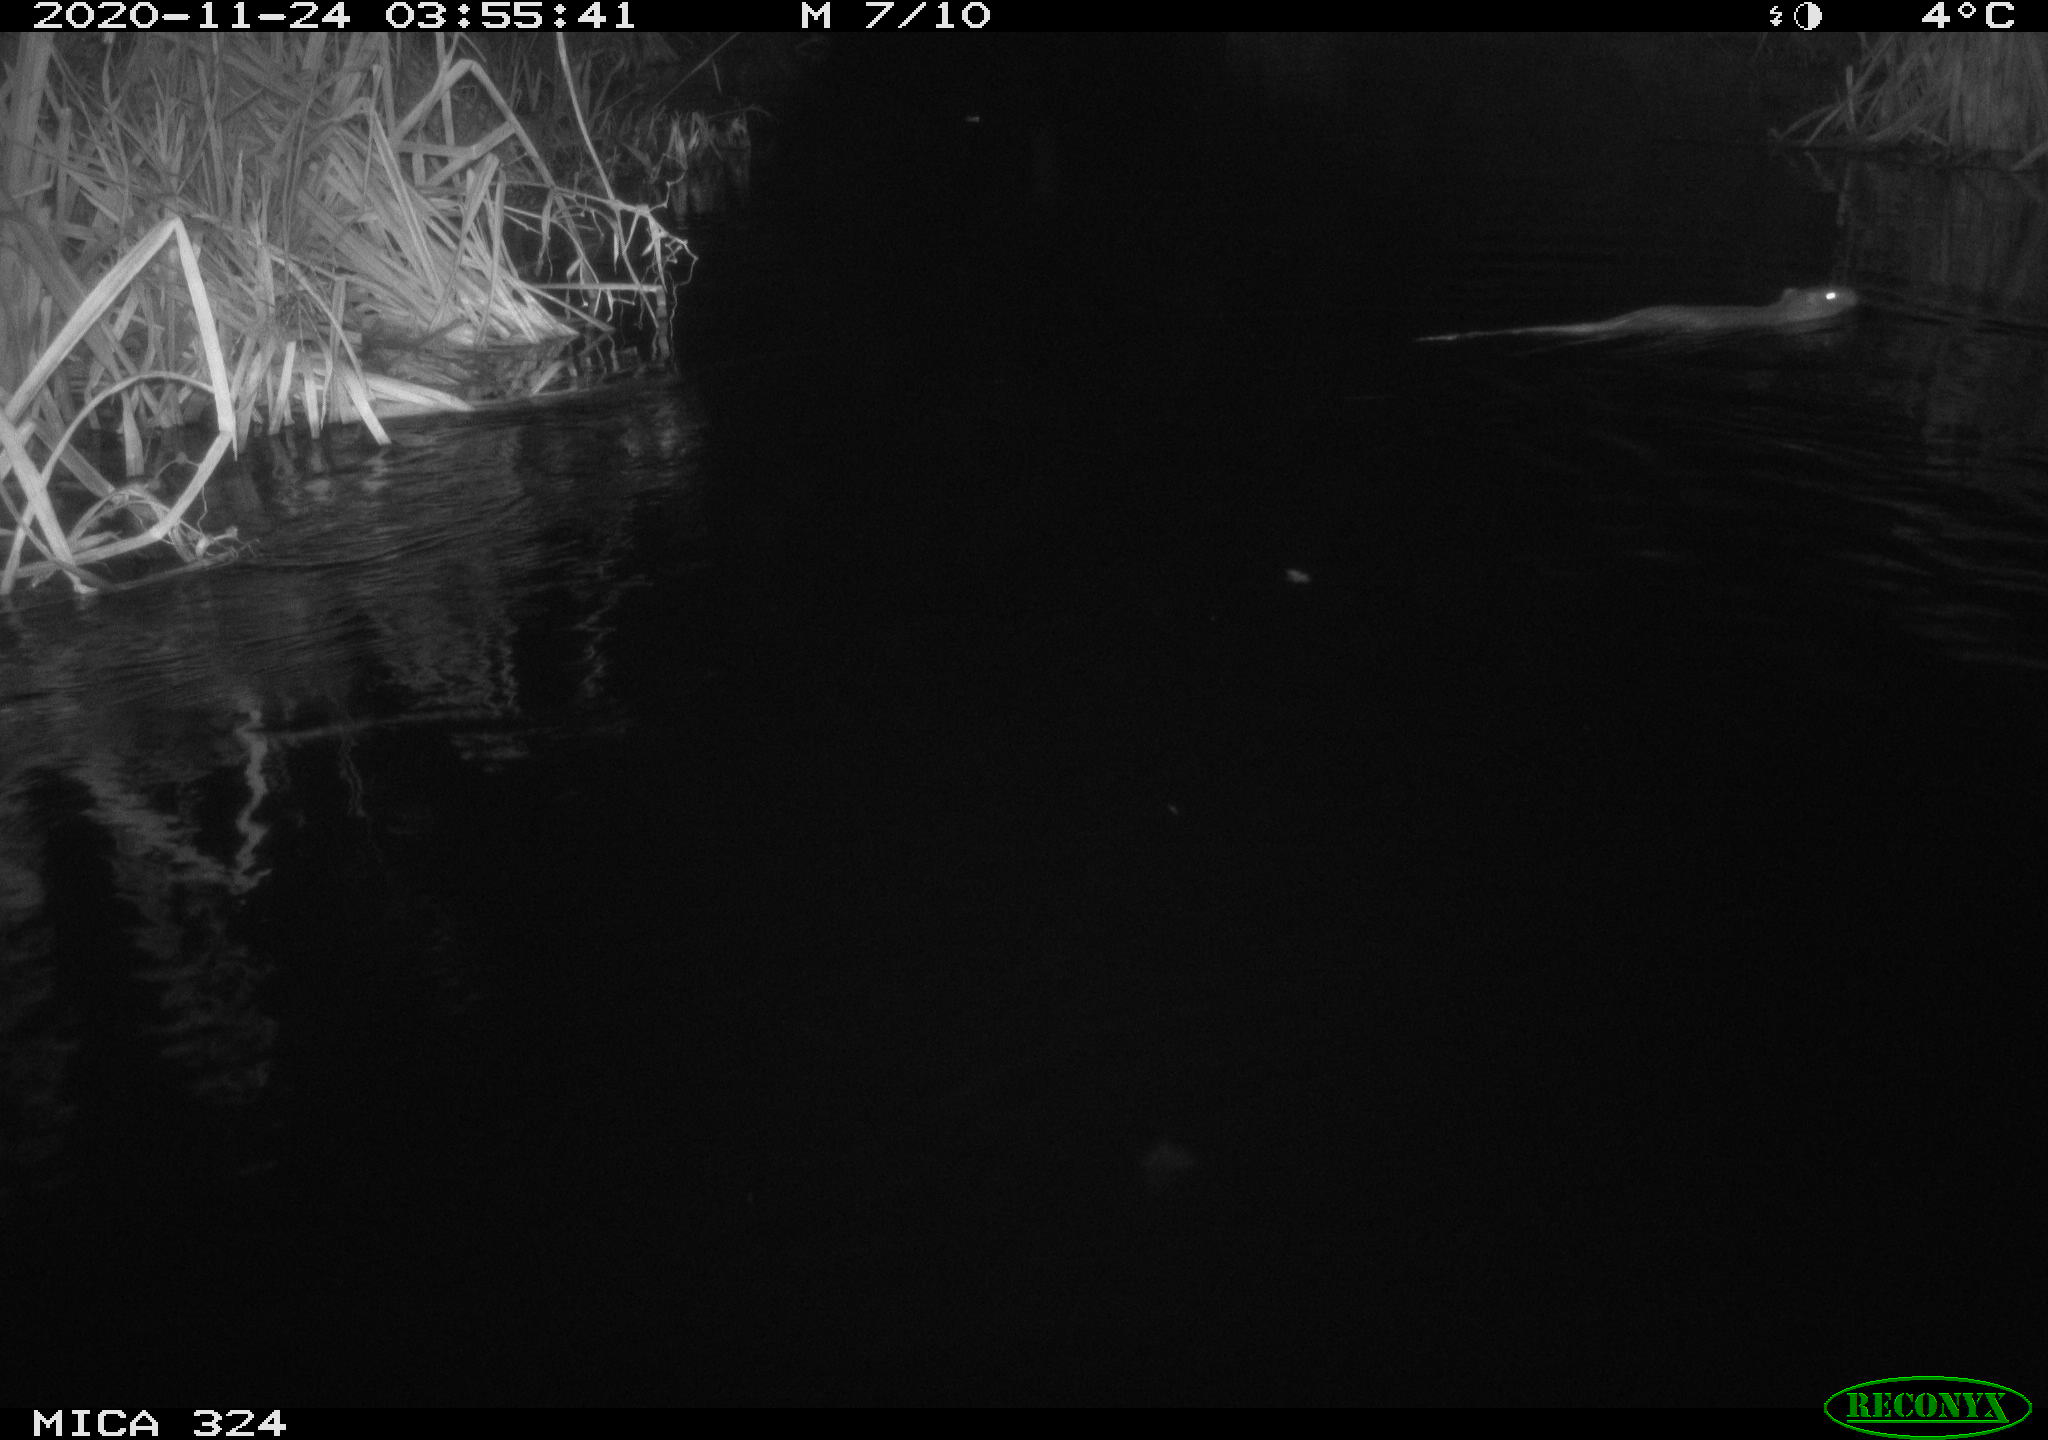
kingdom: Animalia
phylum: Chordata
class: Mammalia
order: Rodentia
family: Myocastoridae
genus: Myocastor
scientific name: Myocastor coypus
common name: Coypu
